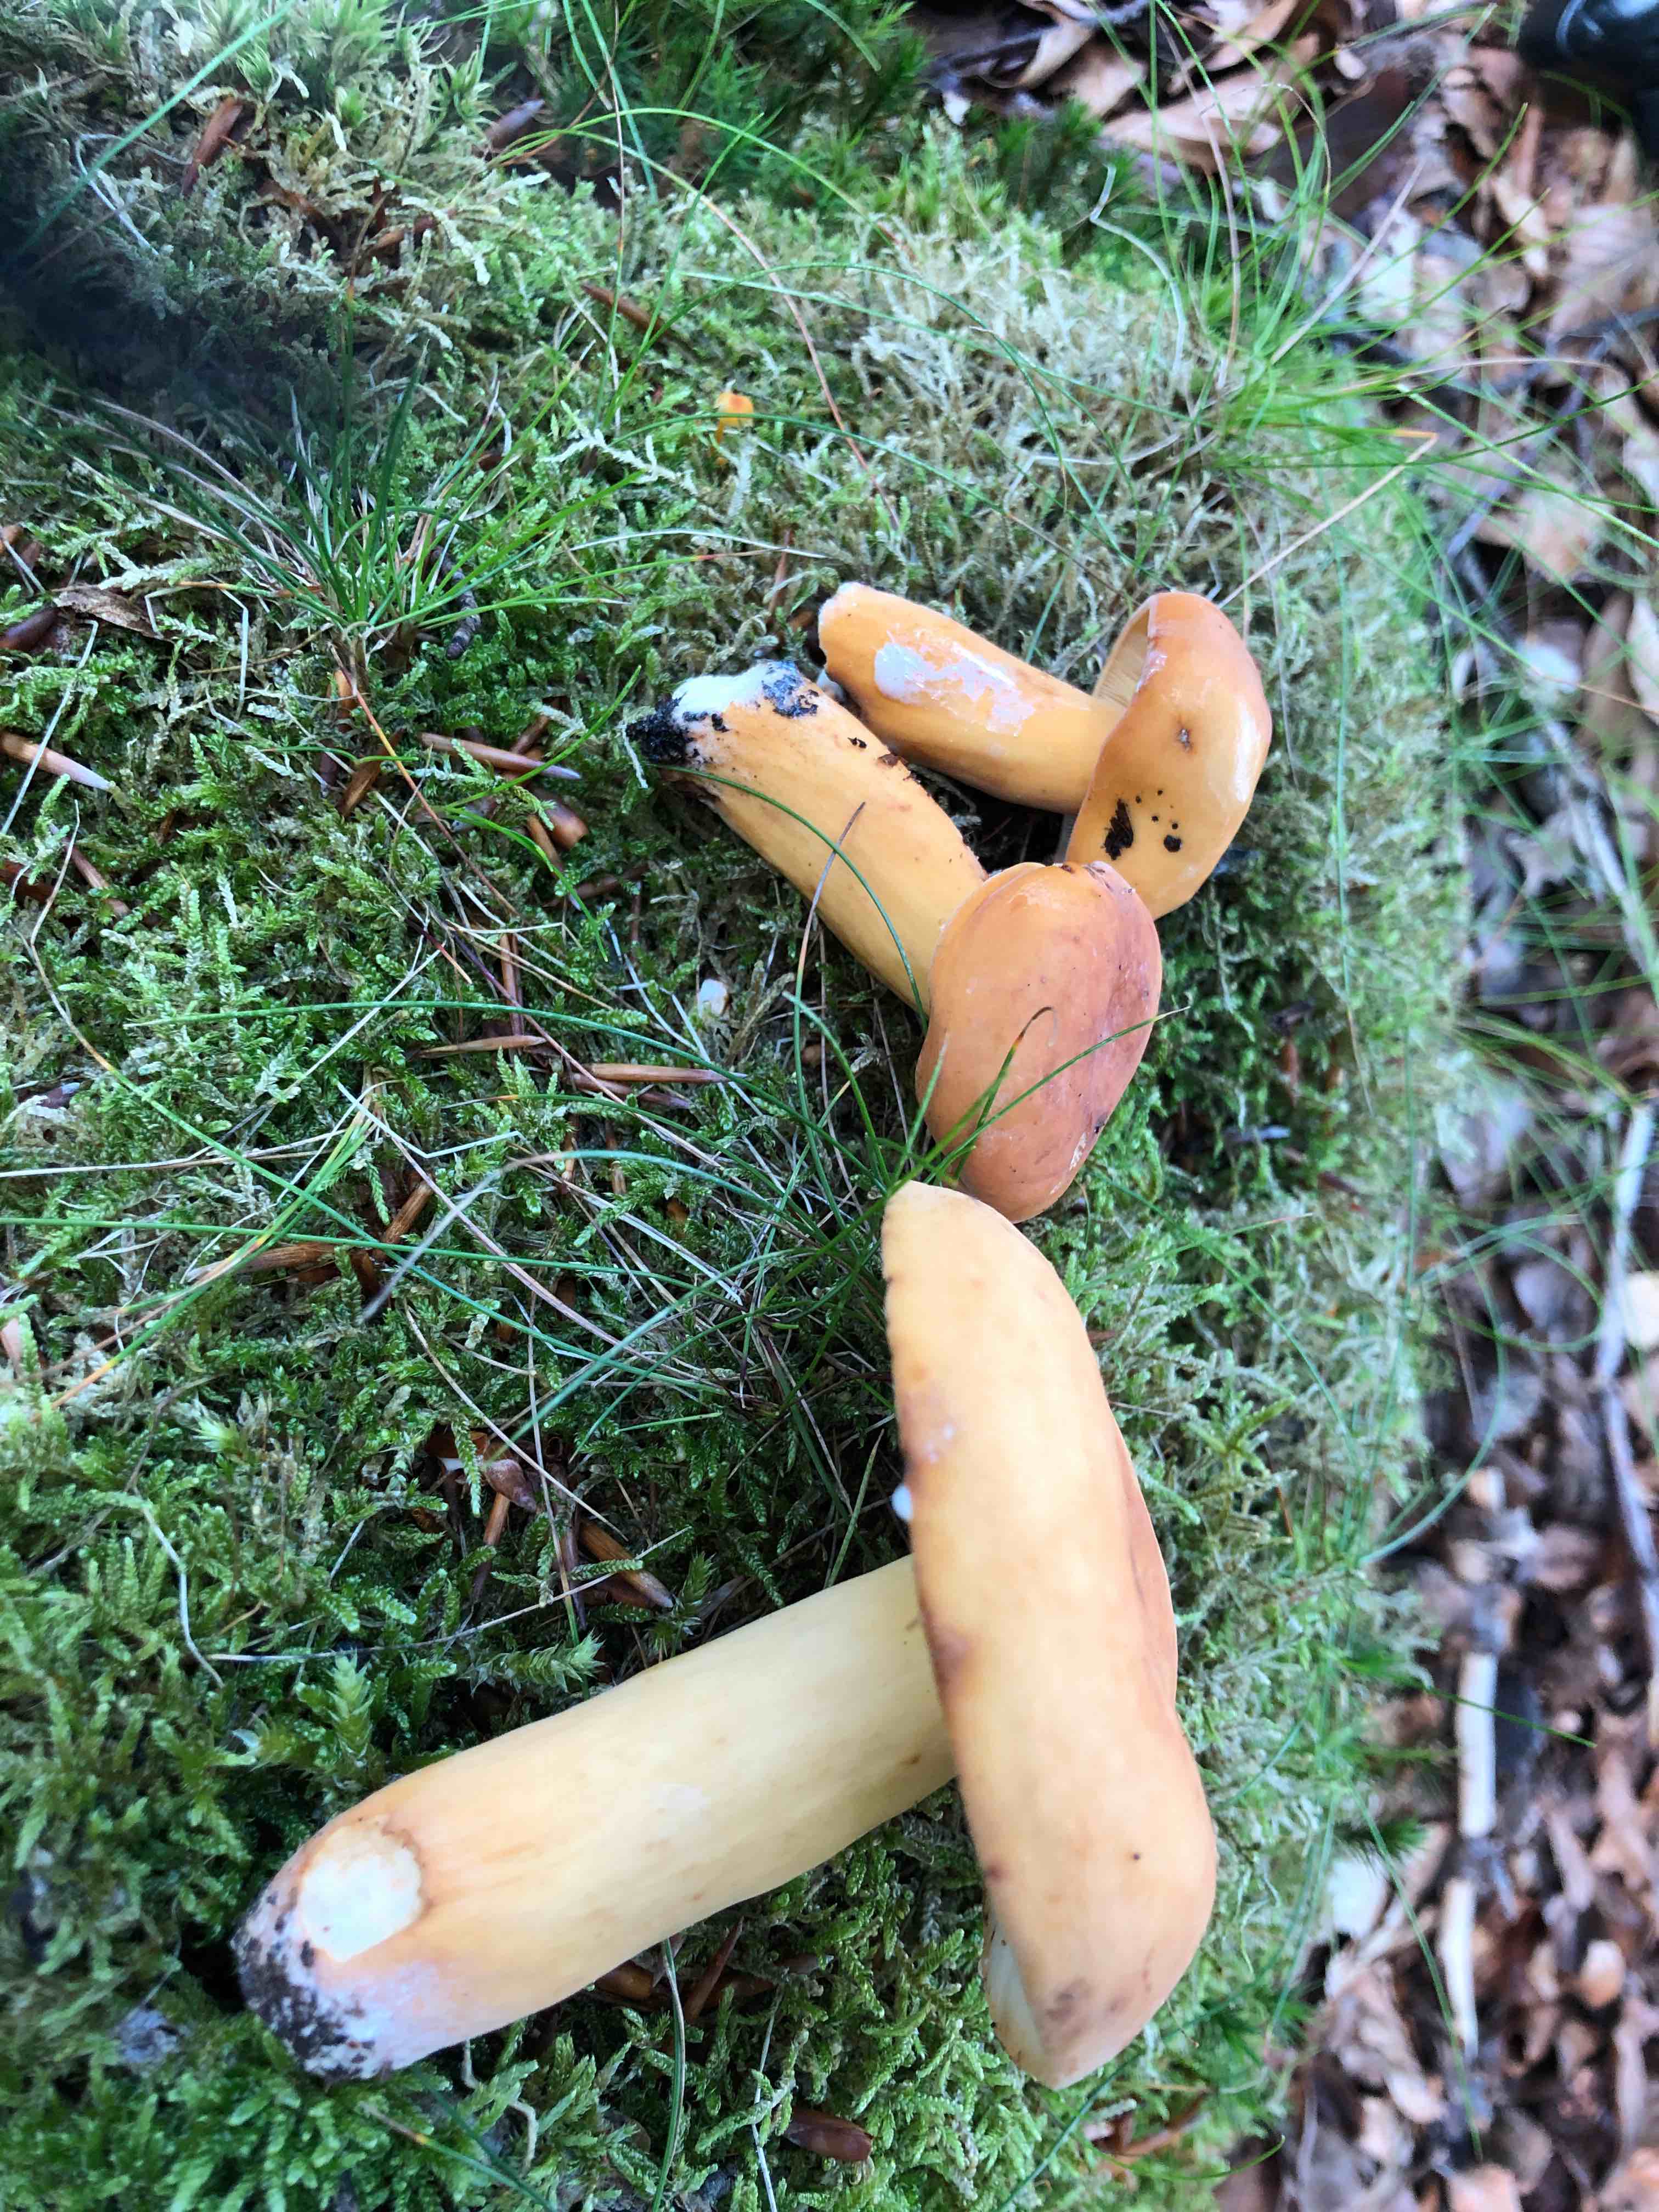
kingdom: Fungi
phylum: Basidiomycota
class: Agaricomycetes
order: Russulales
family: Russulaceae
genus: Lactifluus
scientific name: Lactifluus subvolemus
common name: hummer-mælkehat
